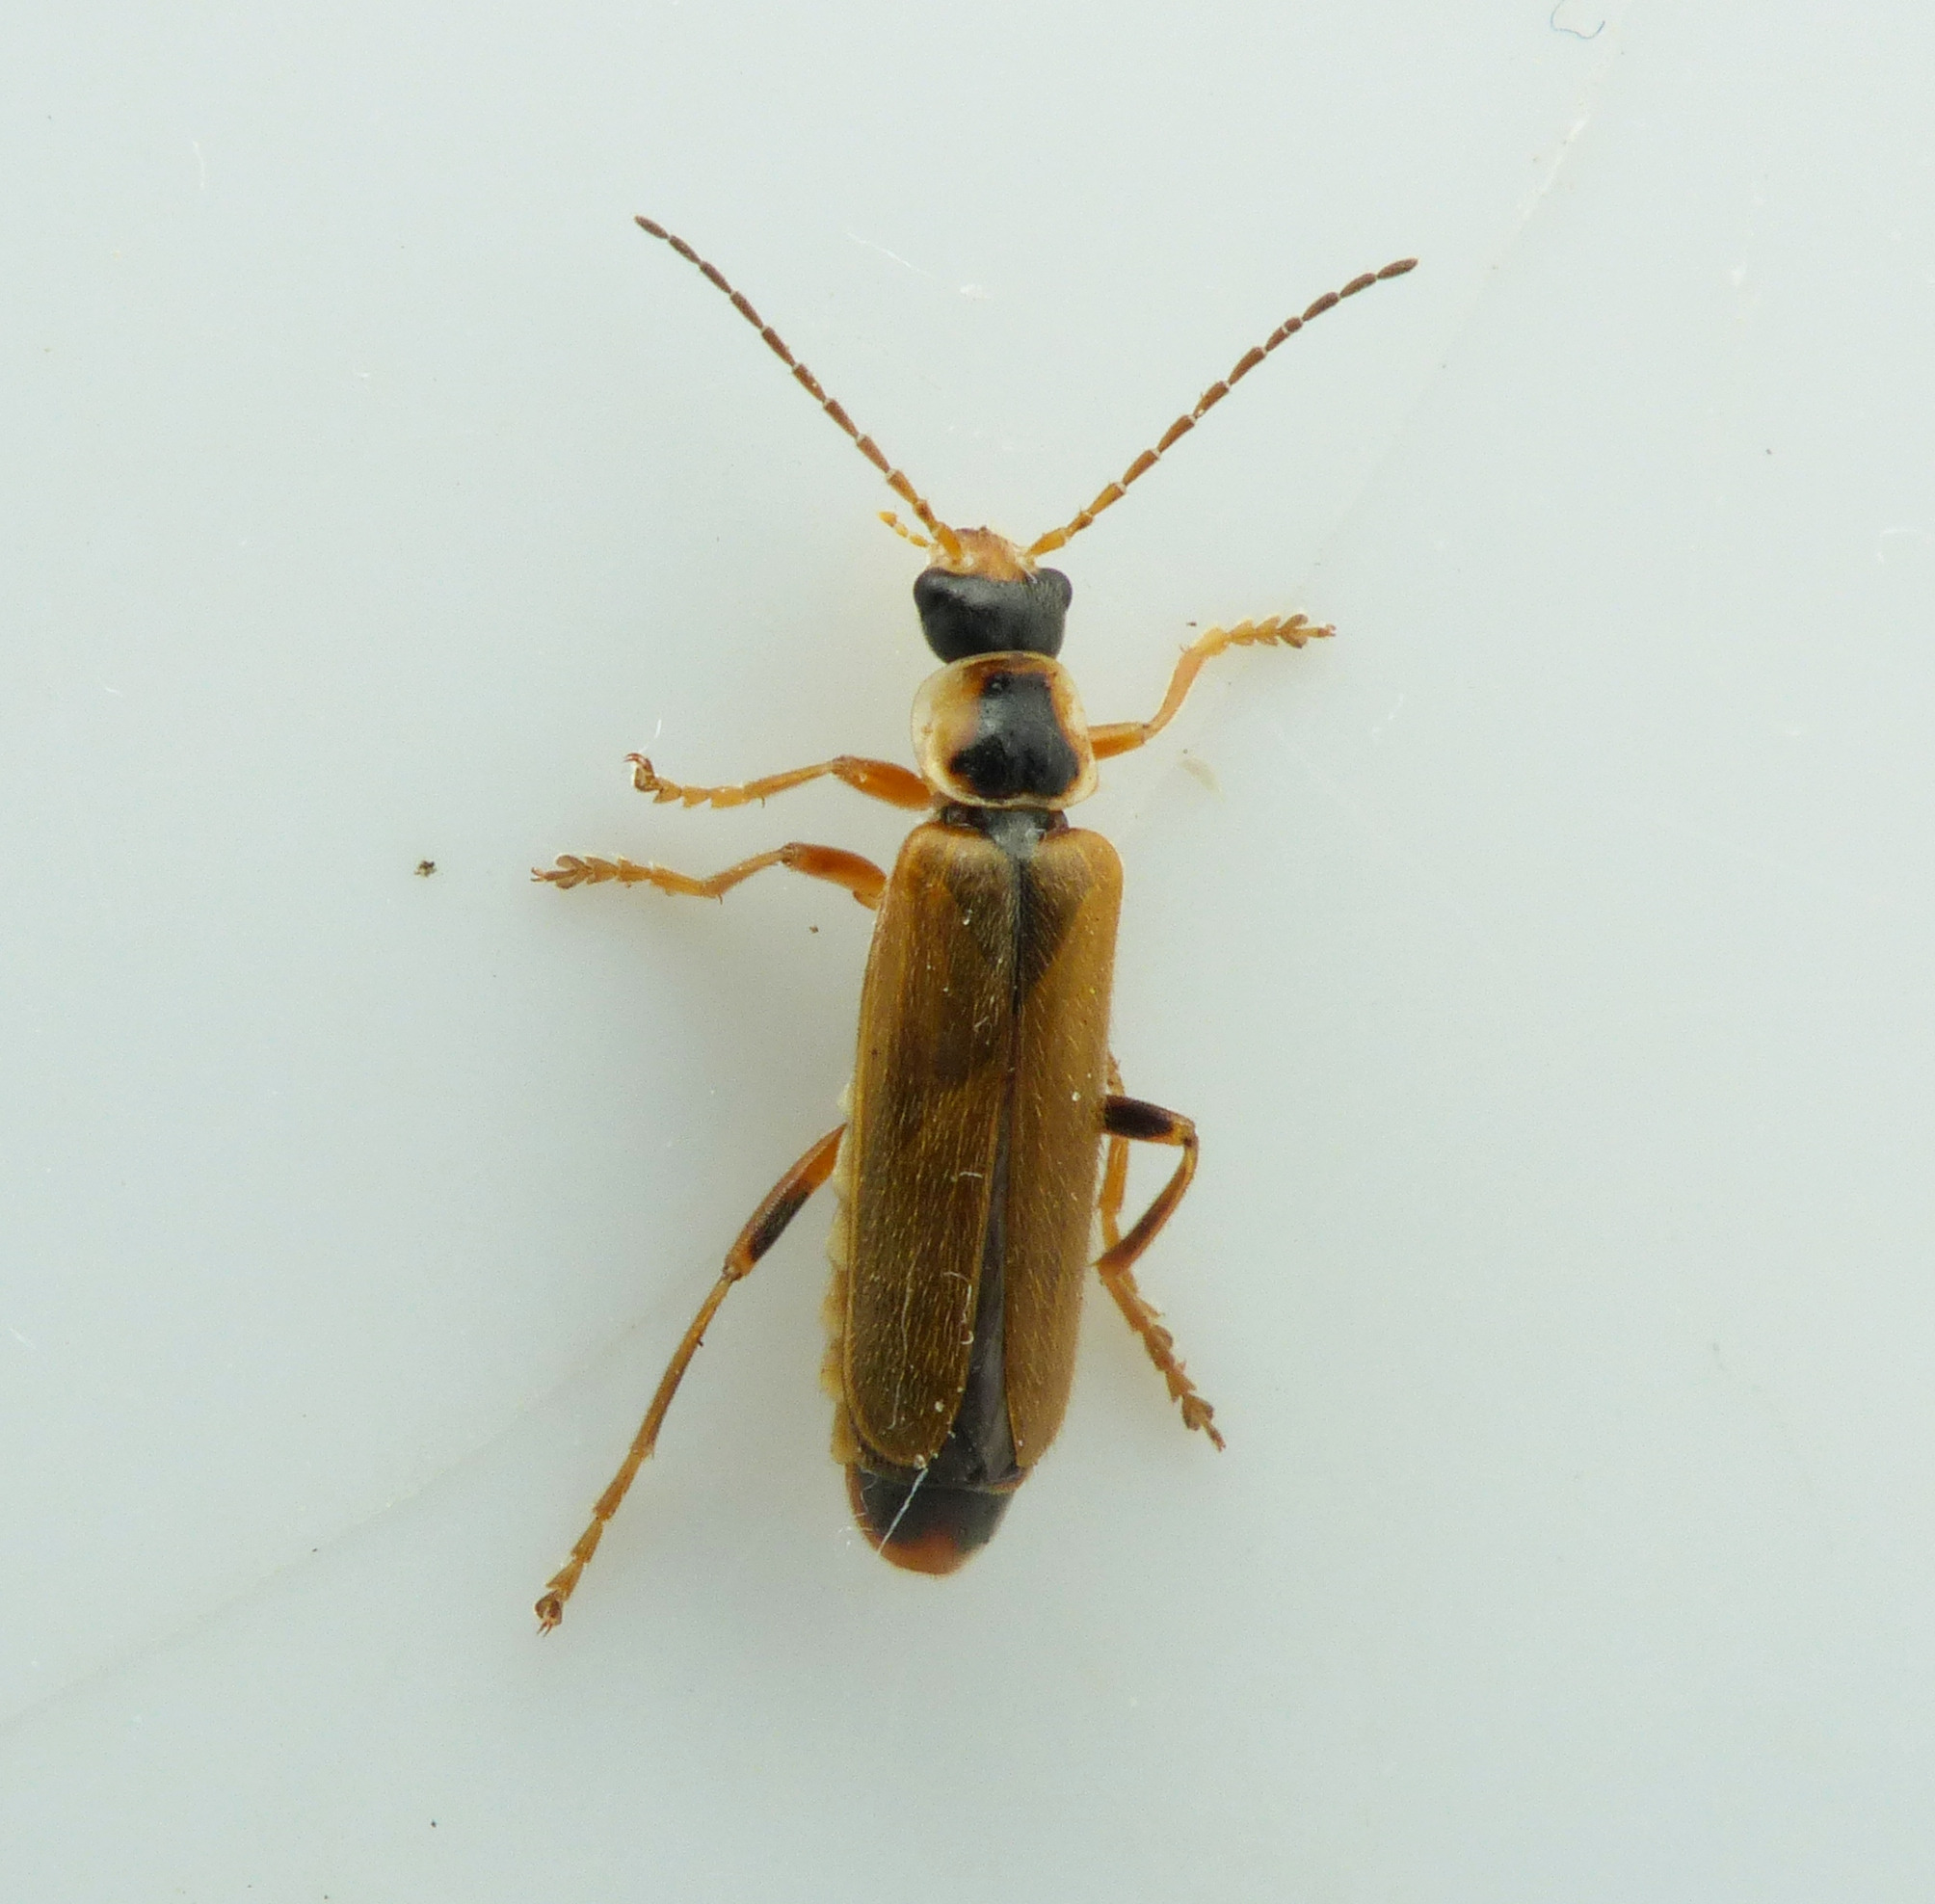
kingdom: Animalia
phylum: Arthropoda
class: Insecta
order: Coleoptera
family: Cantharidae
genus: Cantharis
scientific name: Cantharis decipiens
